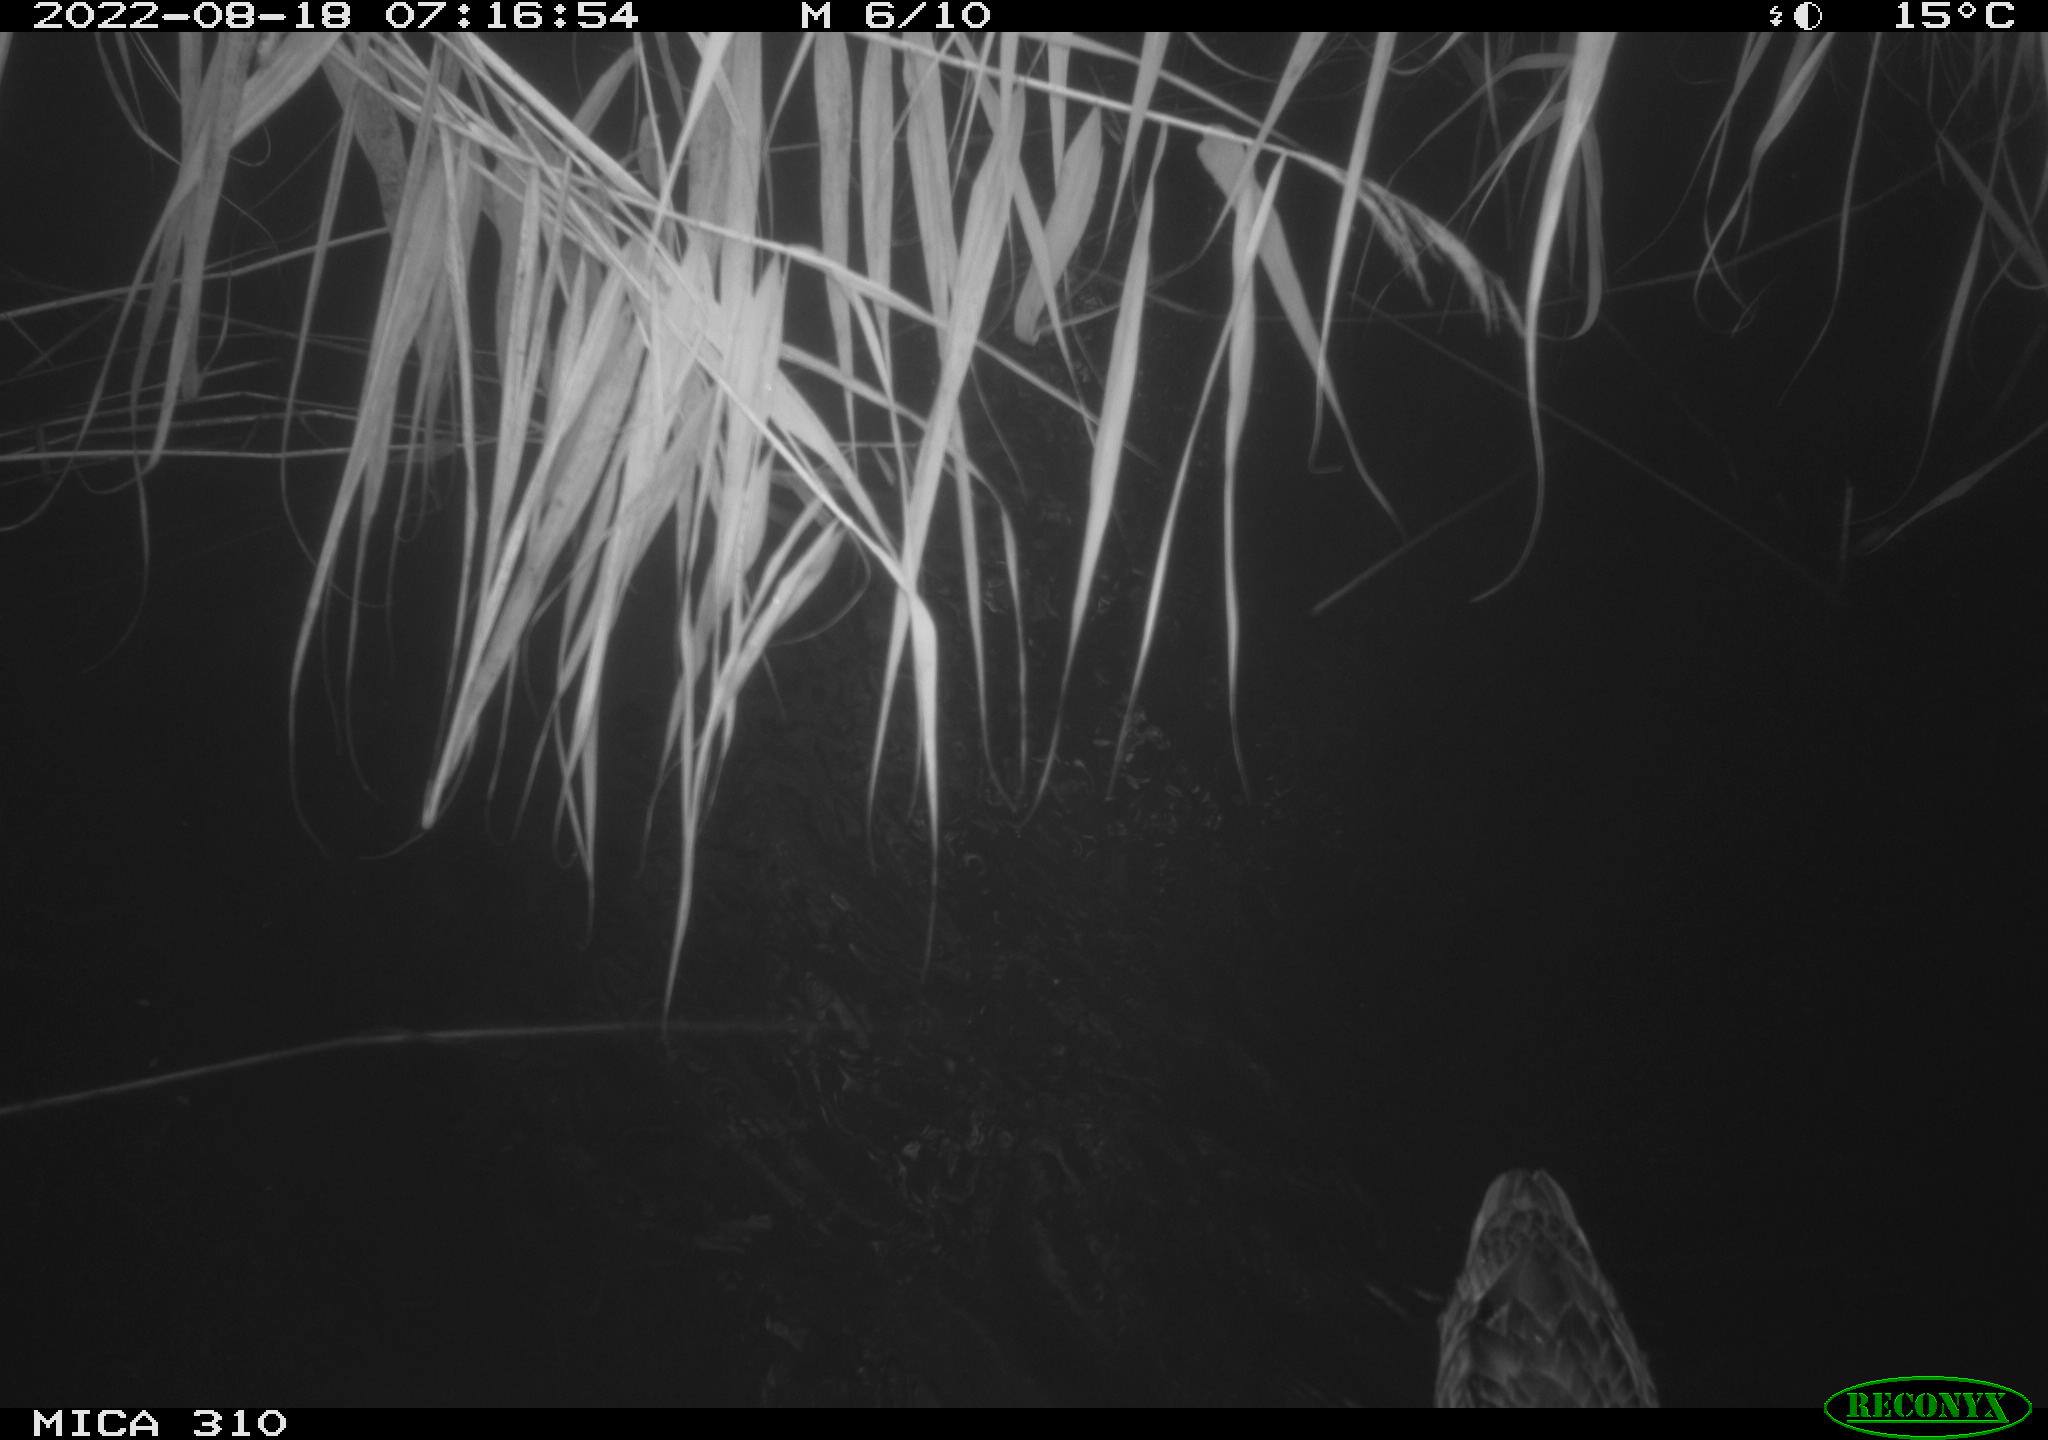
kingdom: Animalia
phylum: Chordata
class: Aves
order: Anseriformes
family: Anatidae
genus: Anas
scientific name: Anas platyrhynchos
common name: Mallard
